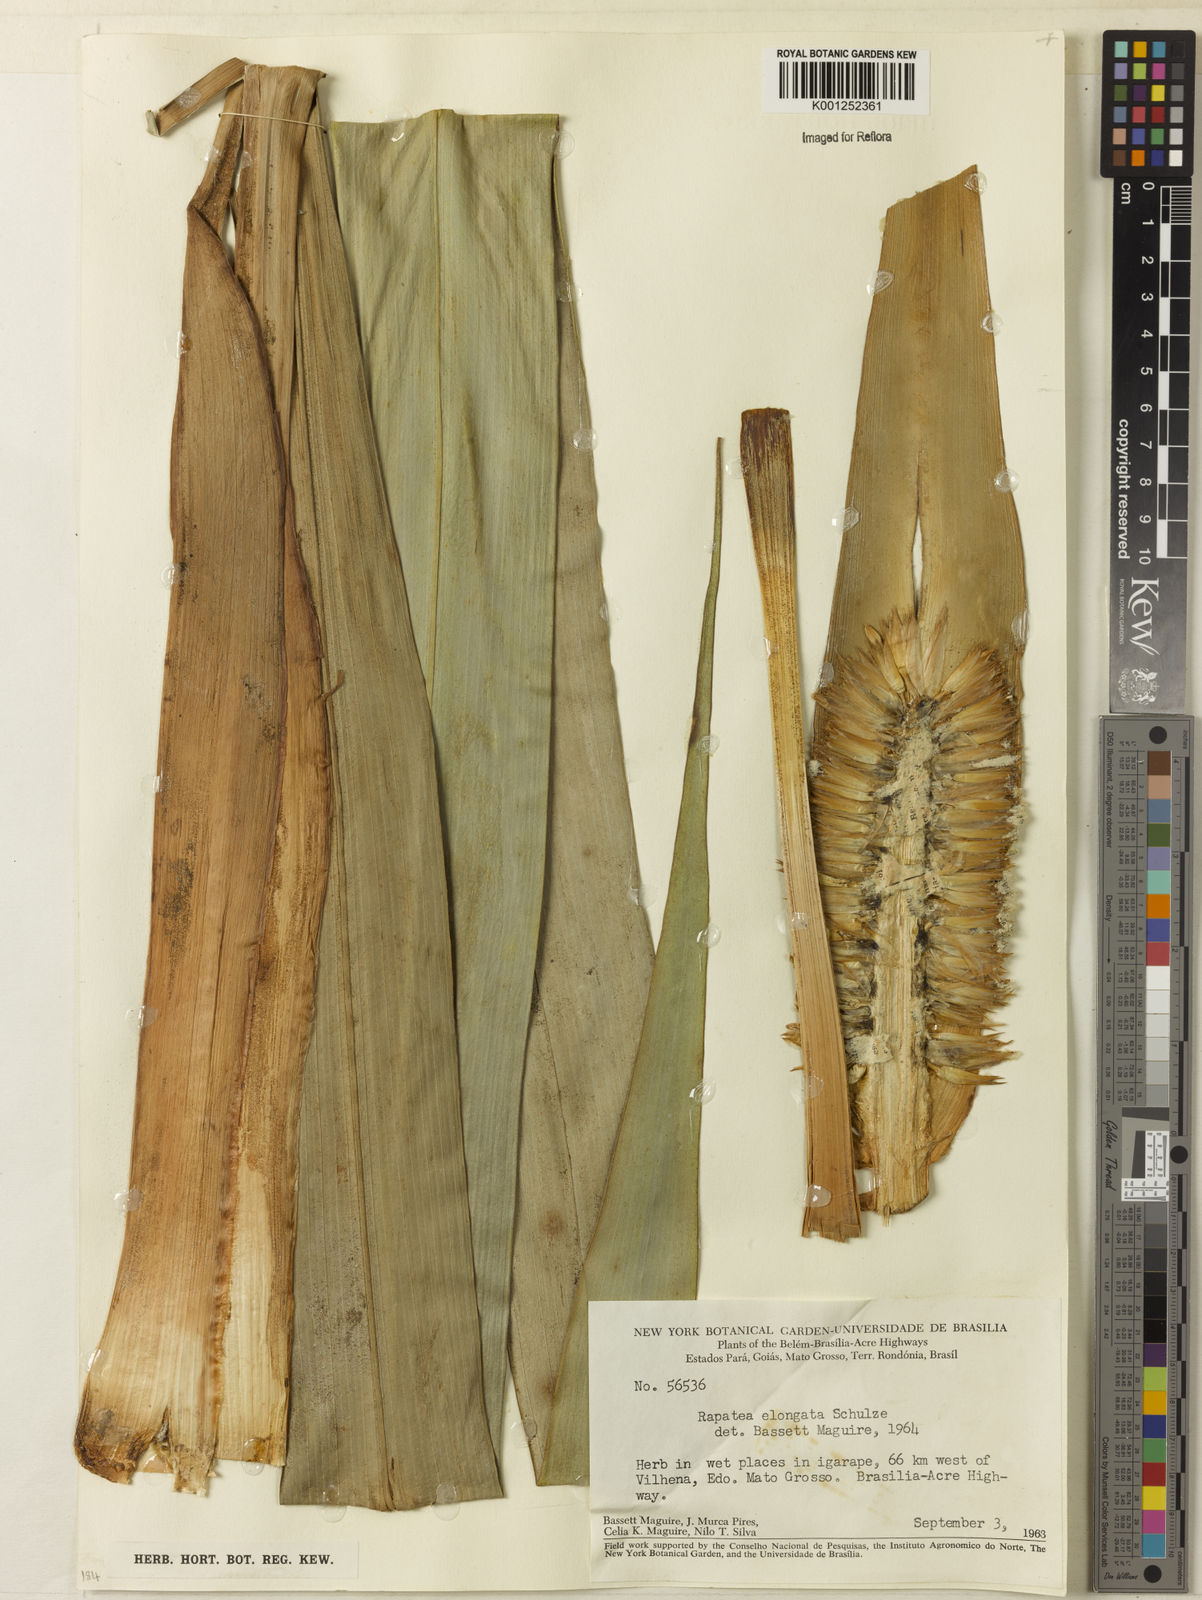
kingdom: Plantae
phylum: Tracheophyta
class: Liliopsida
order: Poales
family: Rapateaceae
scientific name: Rapateaceae
